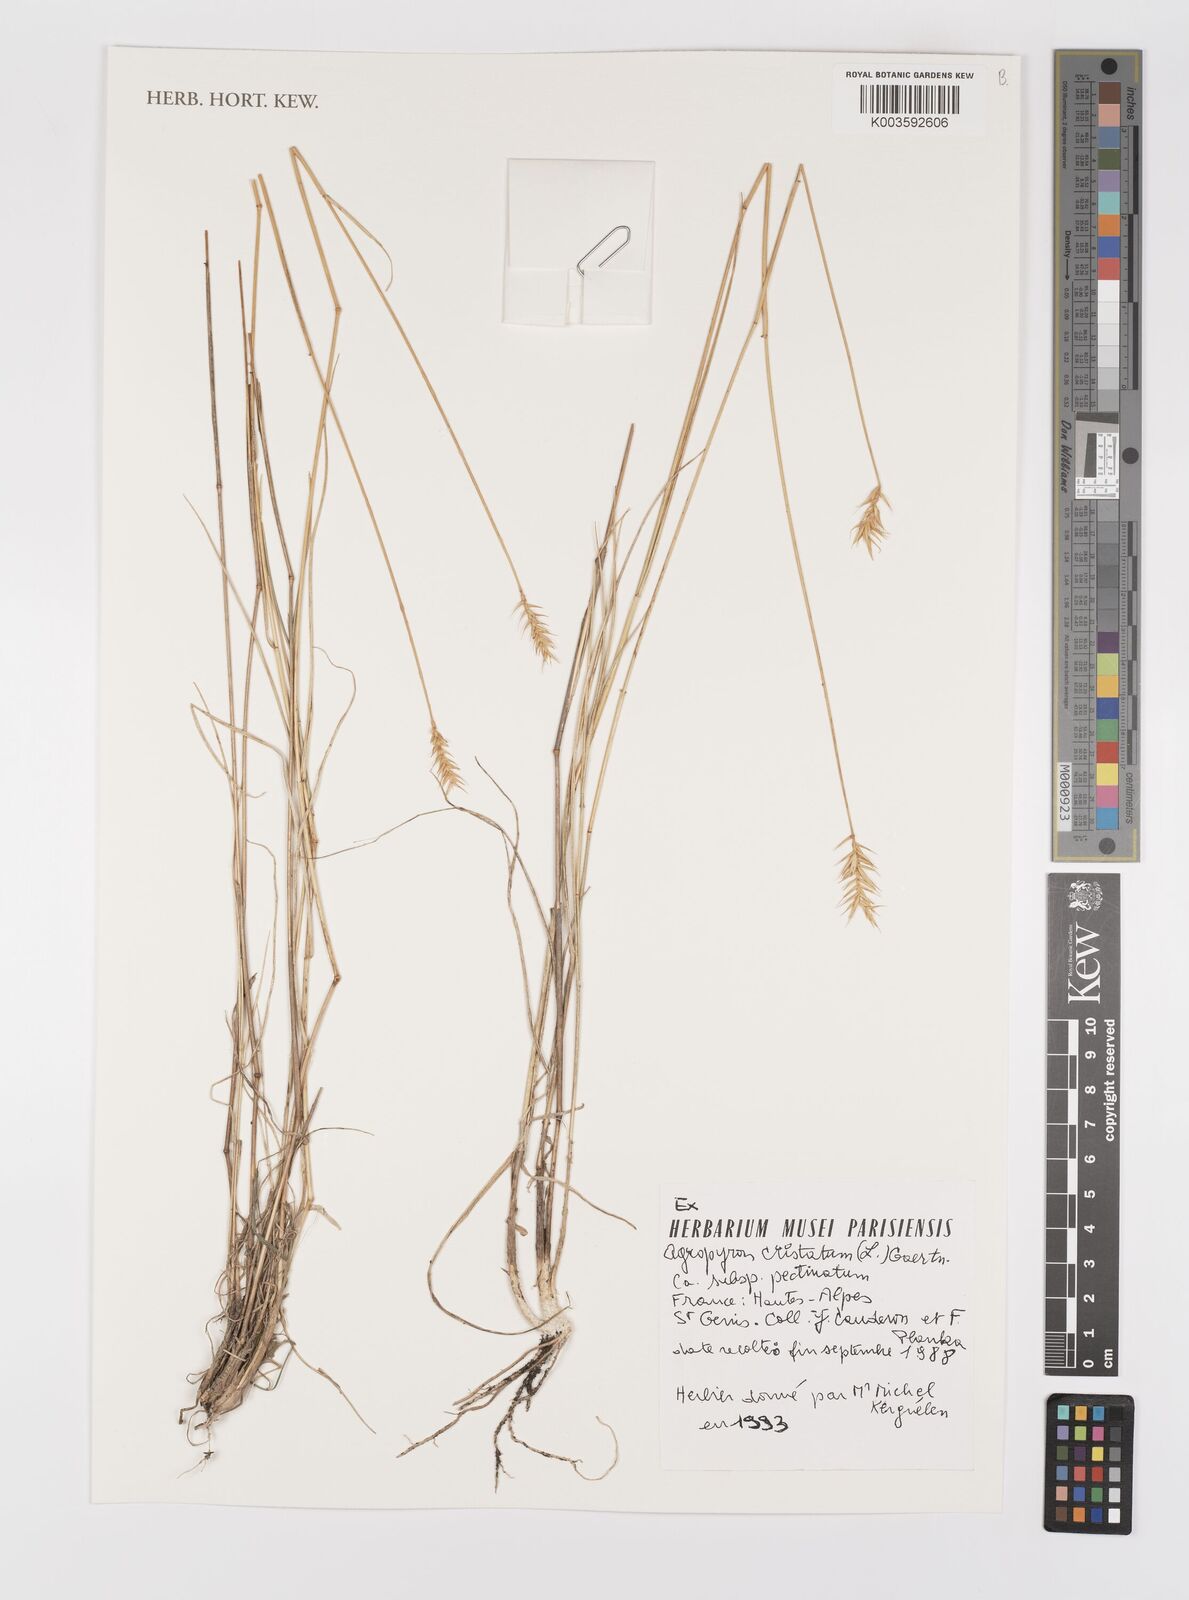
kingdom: Plantae
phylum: Tracheophyta
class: Liliopsida
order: Poales
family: Poaceae
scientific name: Poaceae
